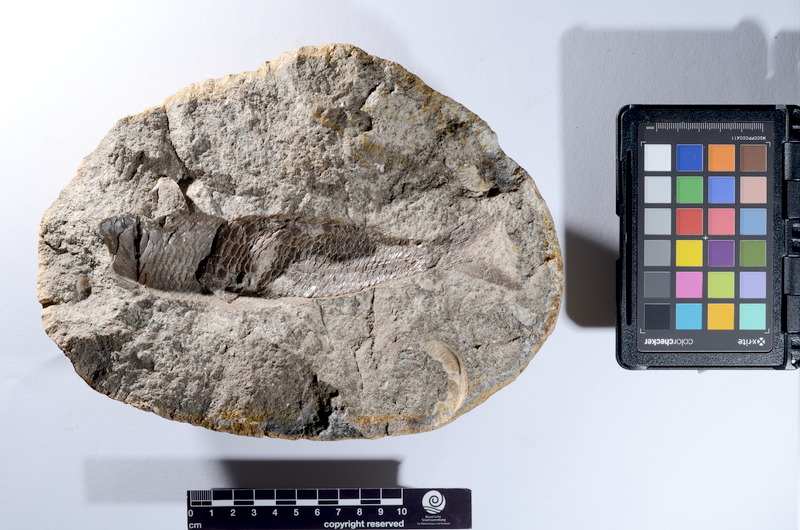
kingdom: Animalia
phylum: Chordata
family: Dorsetichthyidae
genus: Dorsetichthys
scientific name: Dorsetichthys bechei
